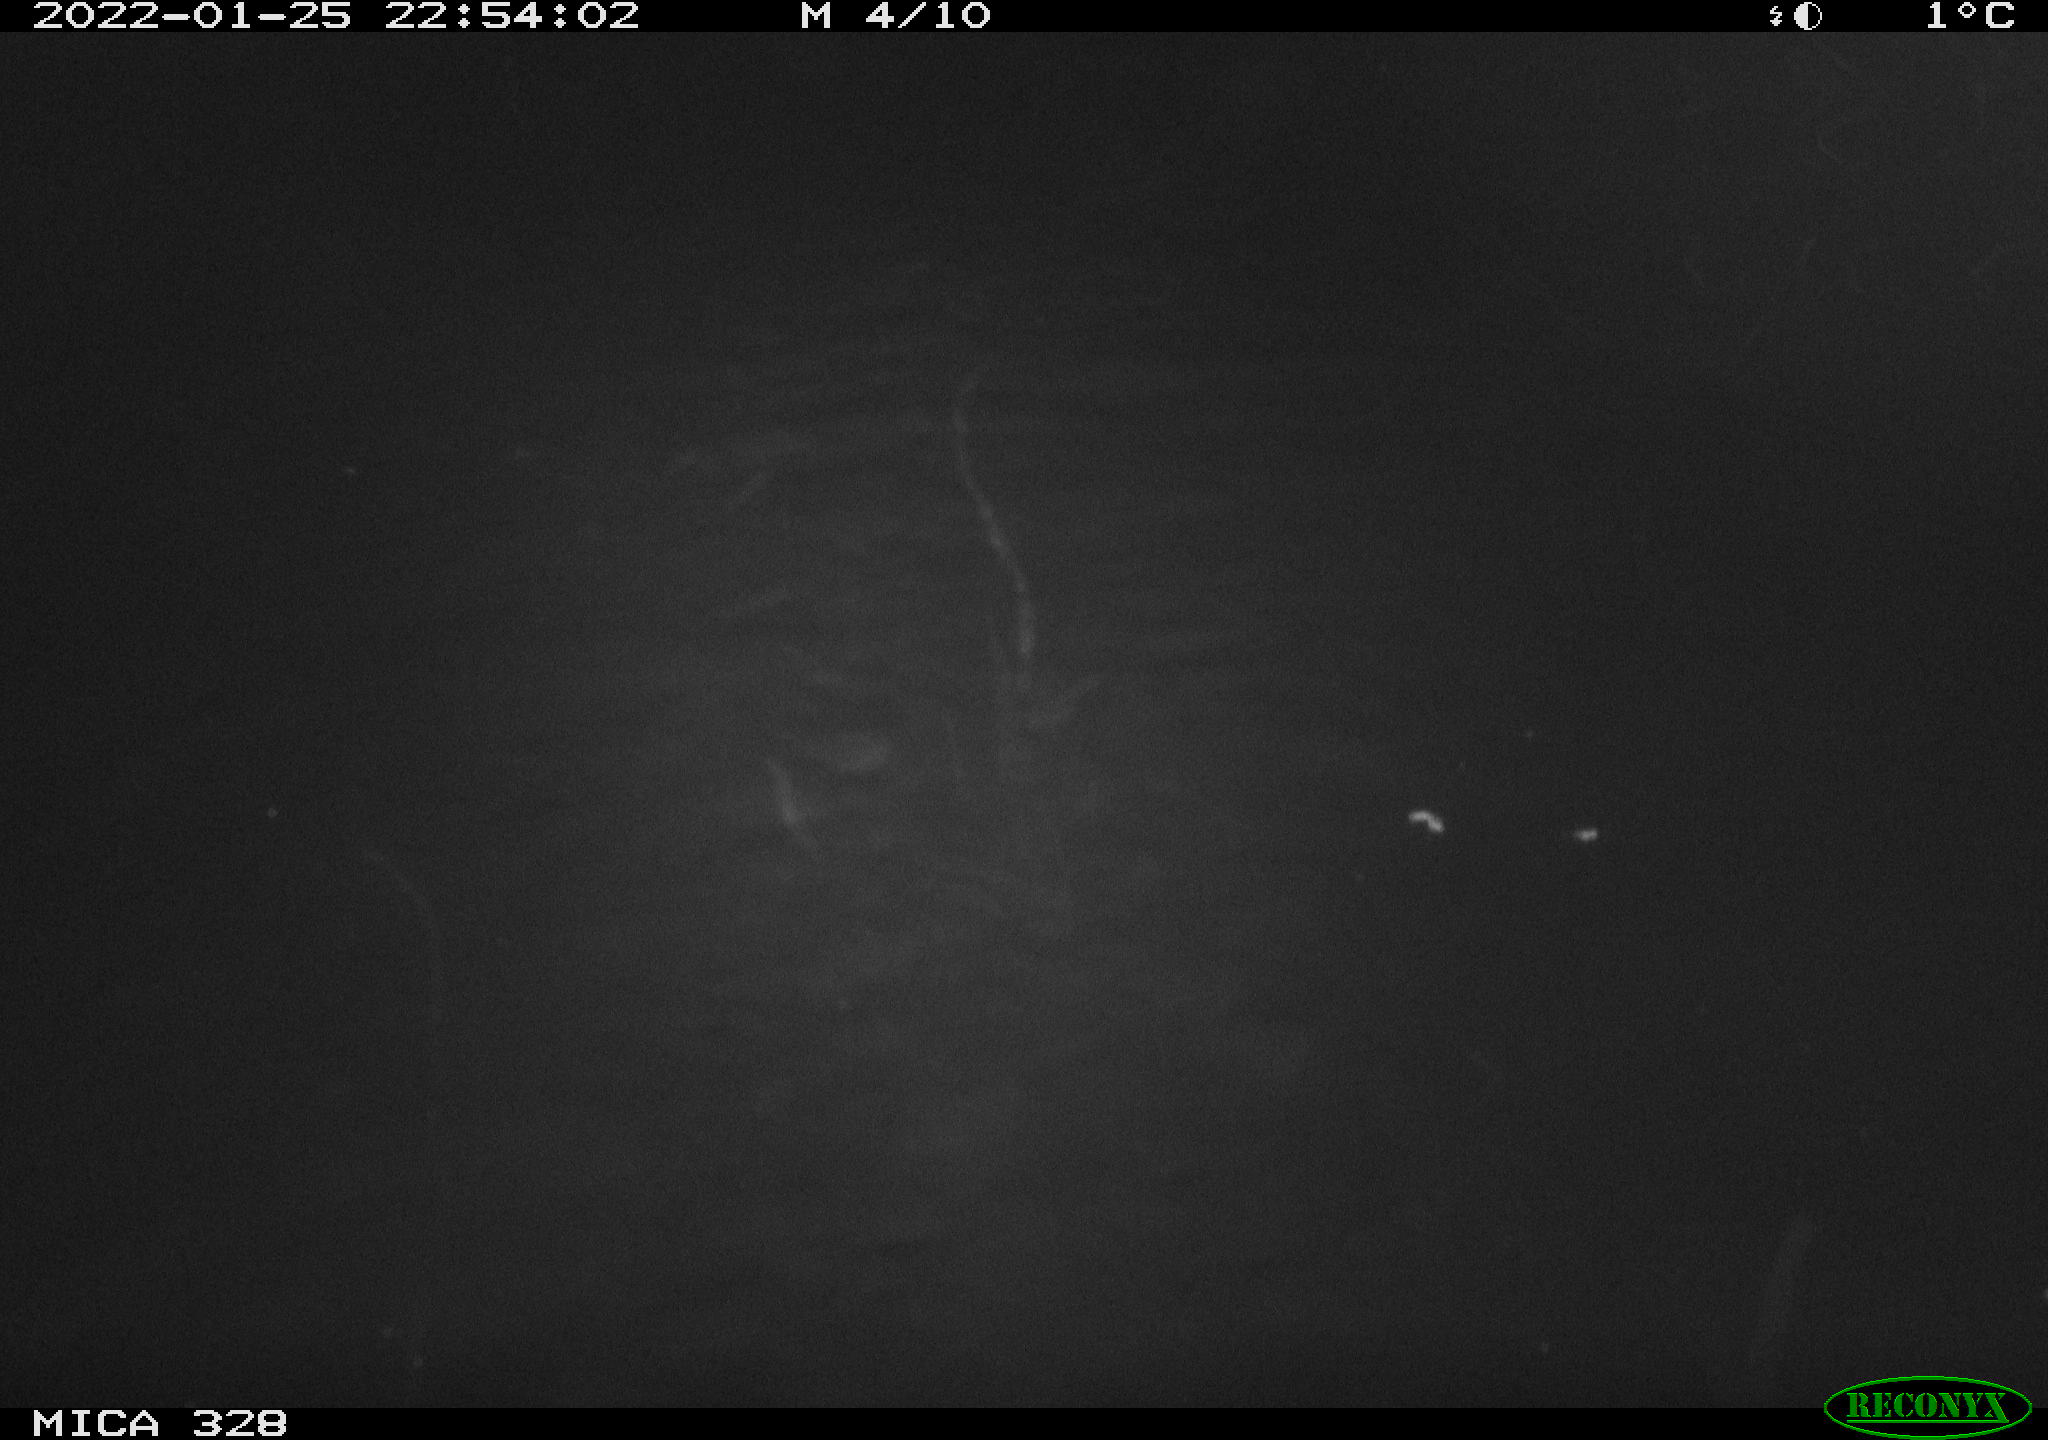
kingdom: Animalia
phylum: Chordata
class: Mammalia
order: Rodentia
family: Cricetidae
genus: Ondatra
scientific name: Ondatra zibethicus
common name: Muskrat
